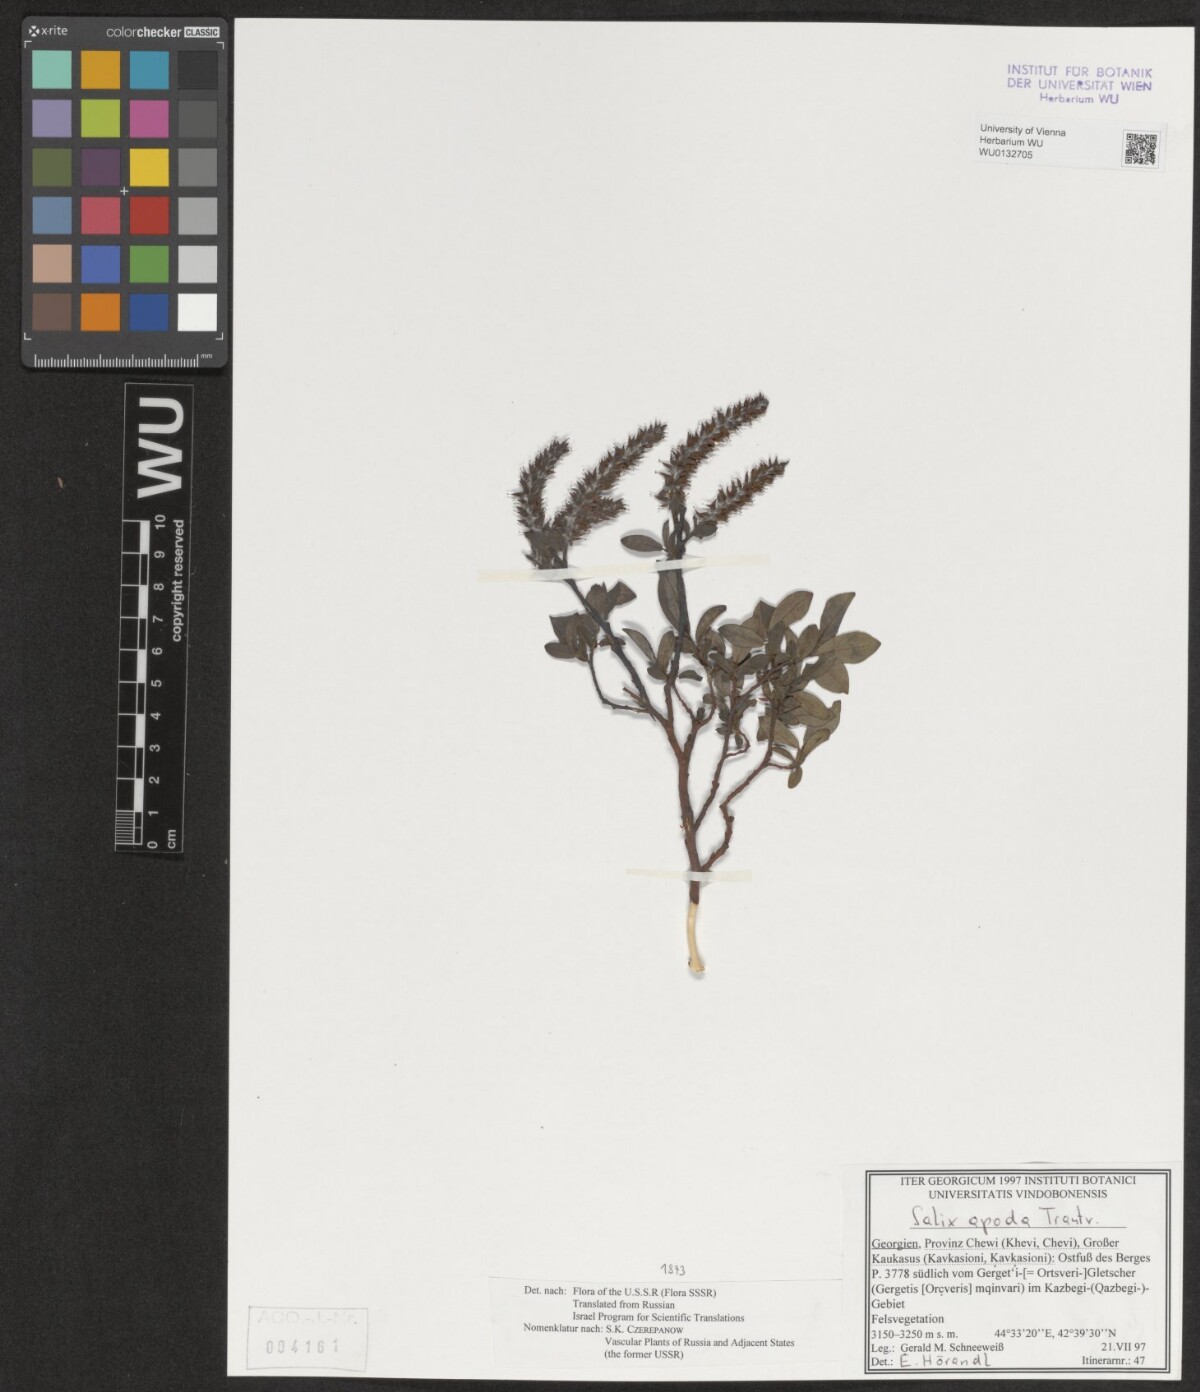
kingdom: Plantae
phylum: Tracheophyta
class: Magnoliopsida
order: Malpighiales
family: Salicaceae
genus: Salix
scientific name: Salix apoda
